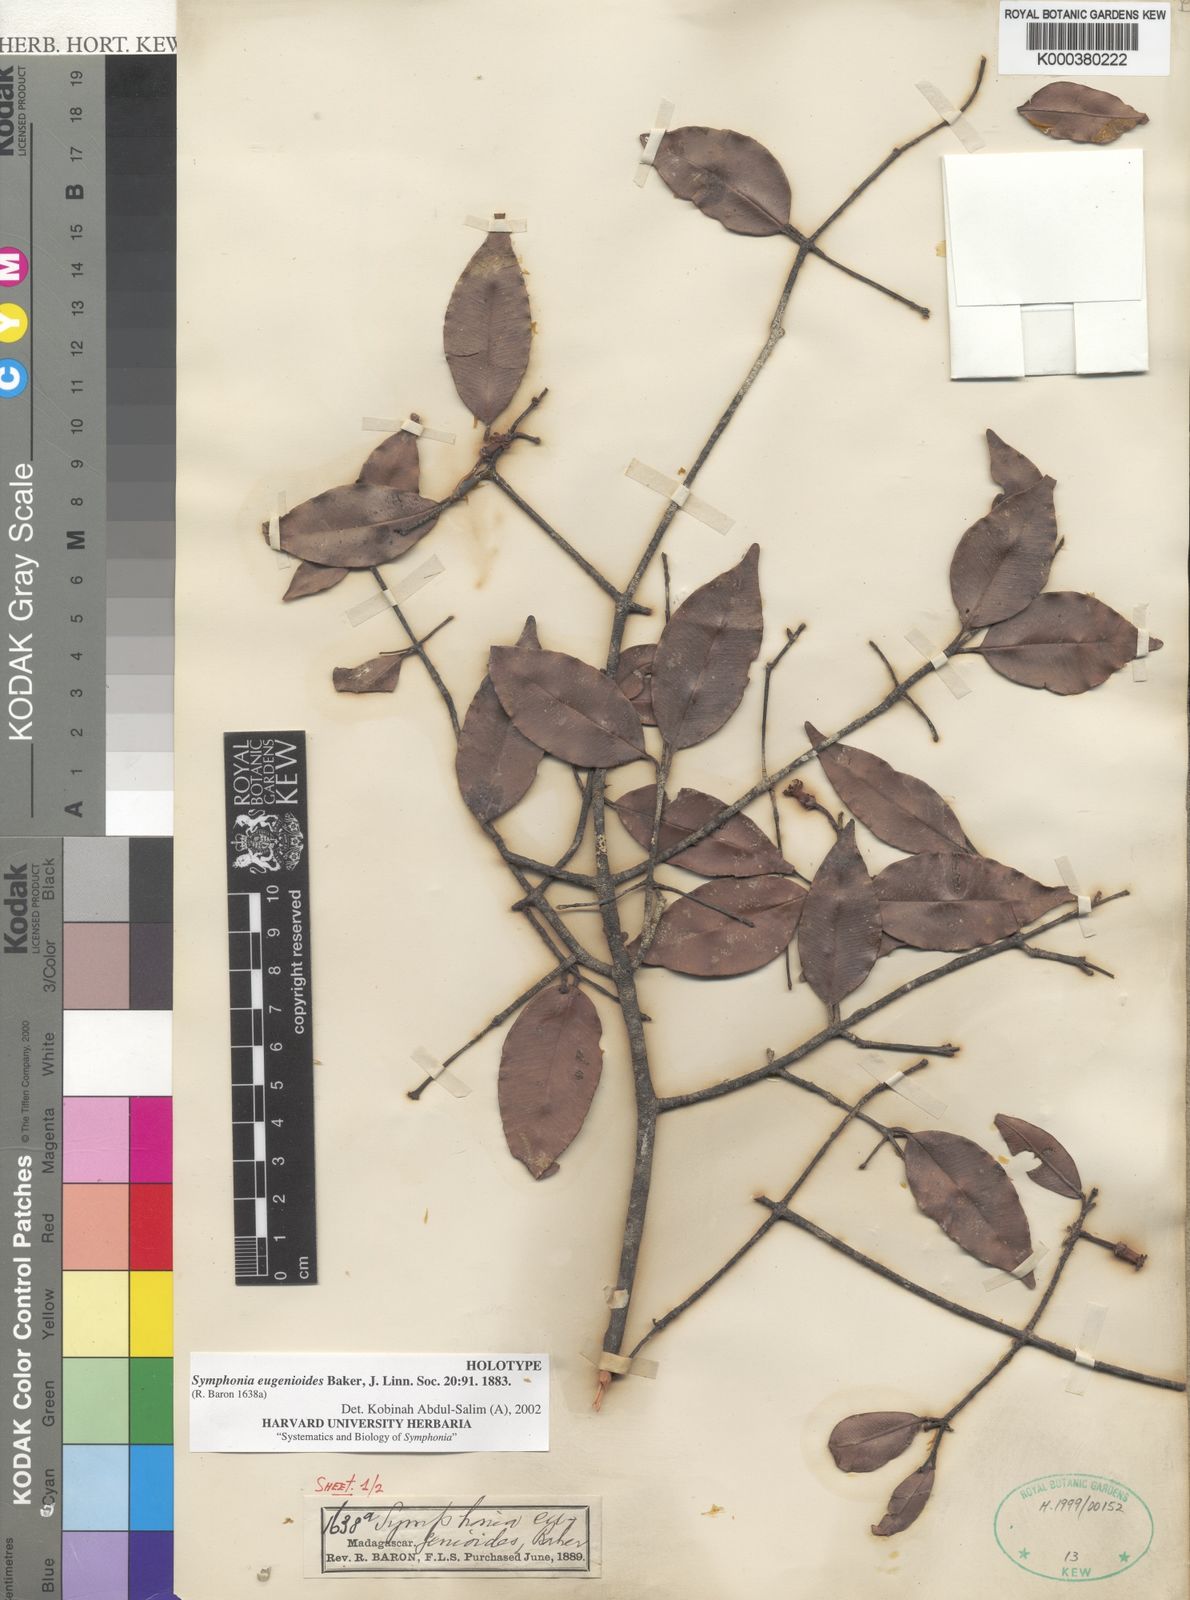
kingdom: Plantae
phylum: Tracheophyta
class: Magnoliopsida
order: Malpighiales
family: Clusiaceae
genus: Symphonia
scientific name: Symphonia eugenioides
